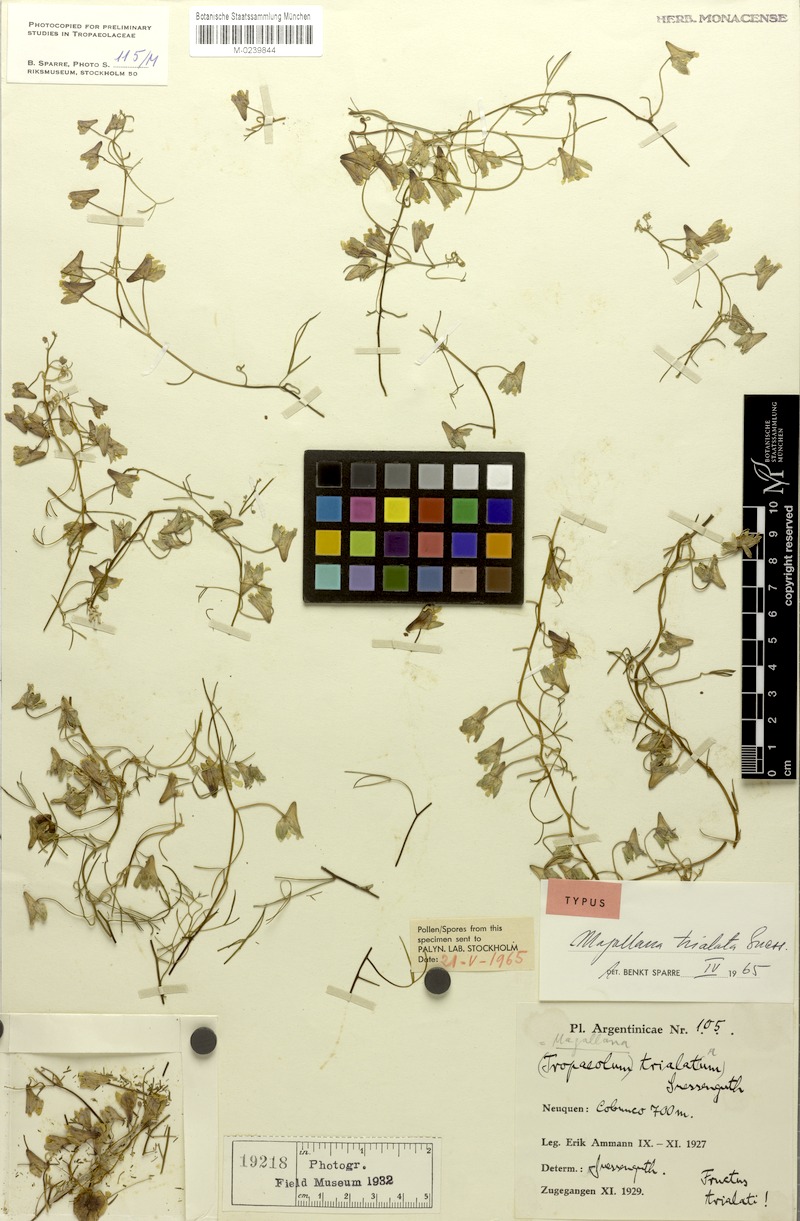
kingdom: Plantae
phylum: Tracheophyta
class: Magnoliopsida
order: Brassicales
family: Tropaeolaceae
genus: Tropaeolum
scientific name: Tropaeolum trialatum
